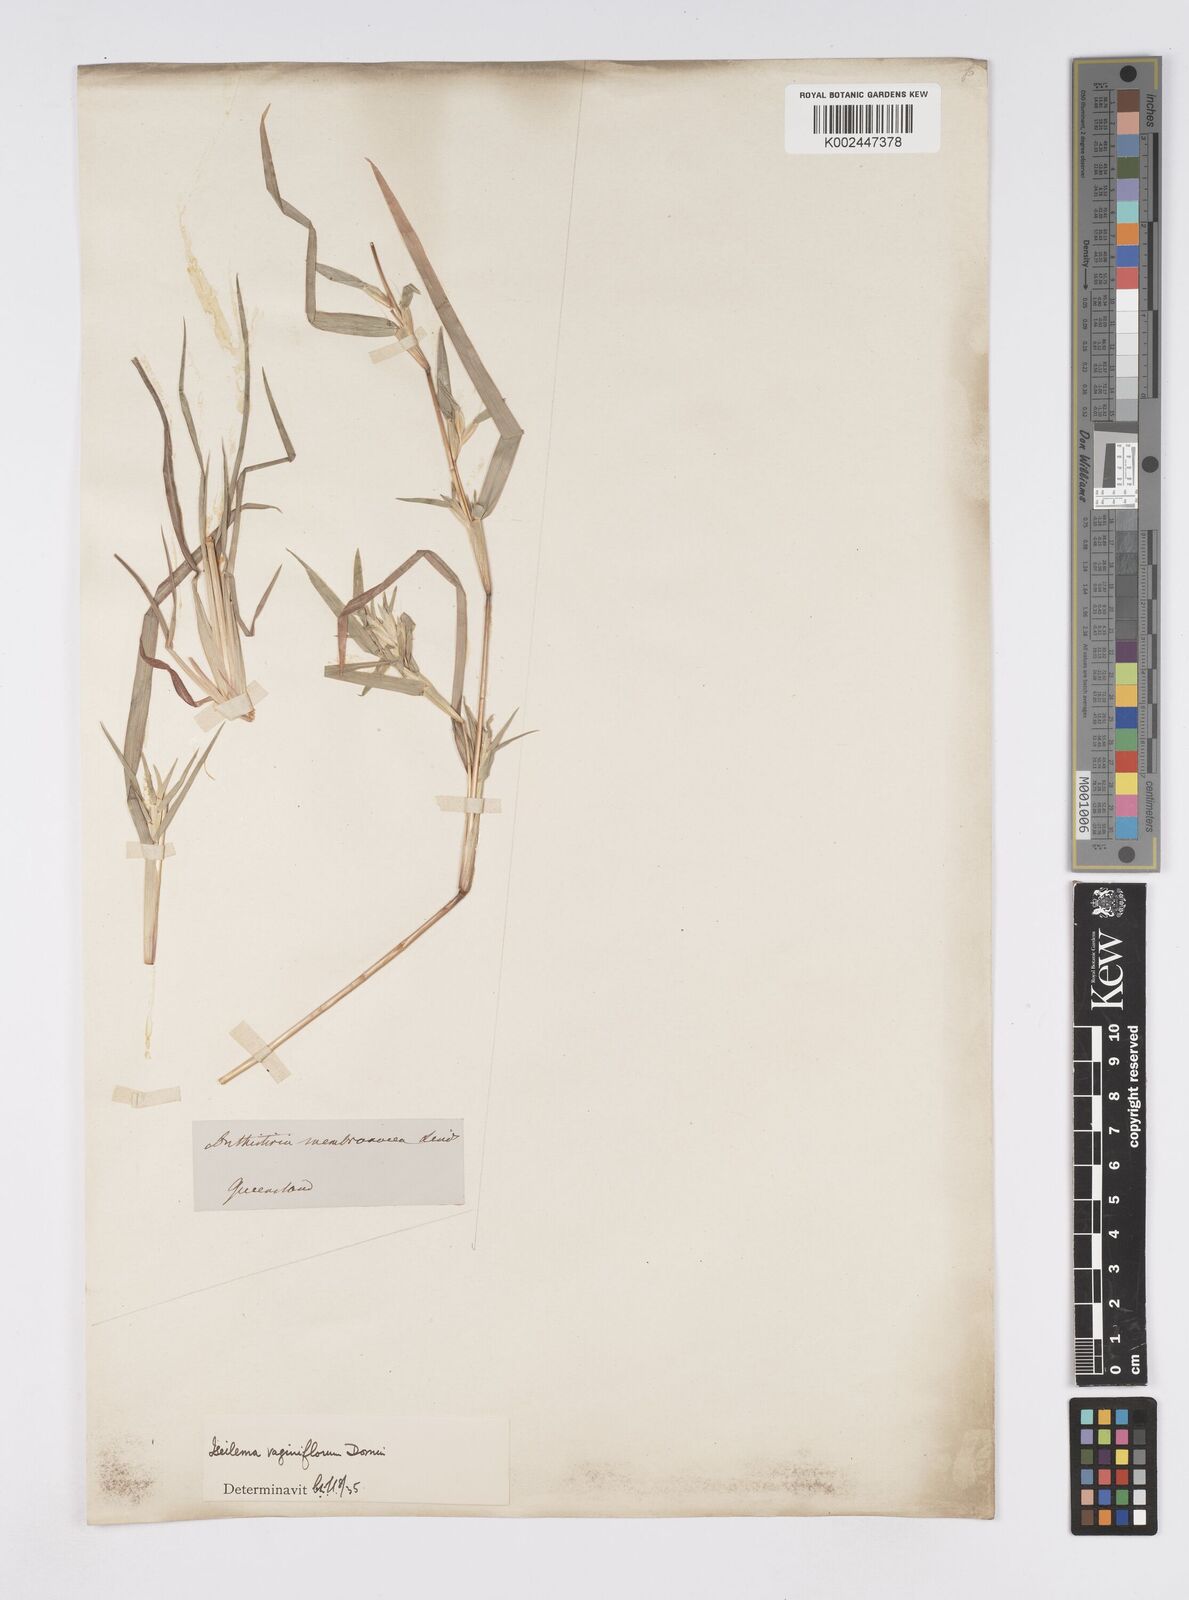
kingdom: Plantae
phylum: Tracheophyta
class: Liliopsida
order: Poales
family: Poaceae
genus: Iseilema
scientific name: Iseilema vaginiflorum
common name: Red flinders grass
